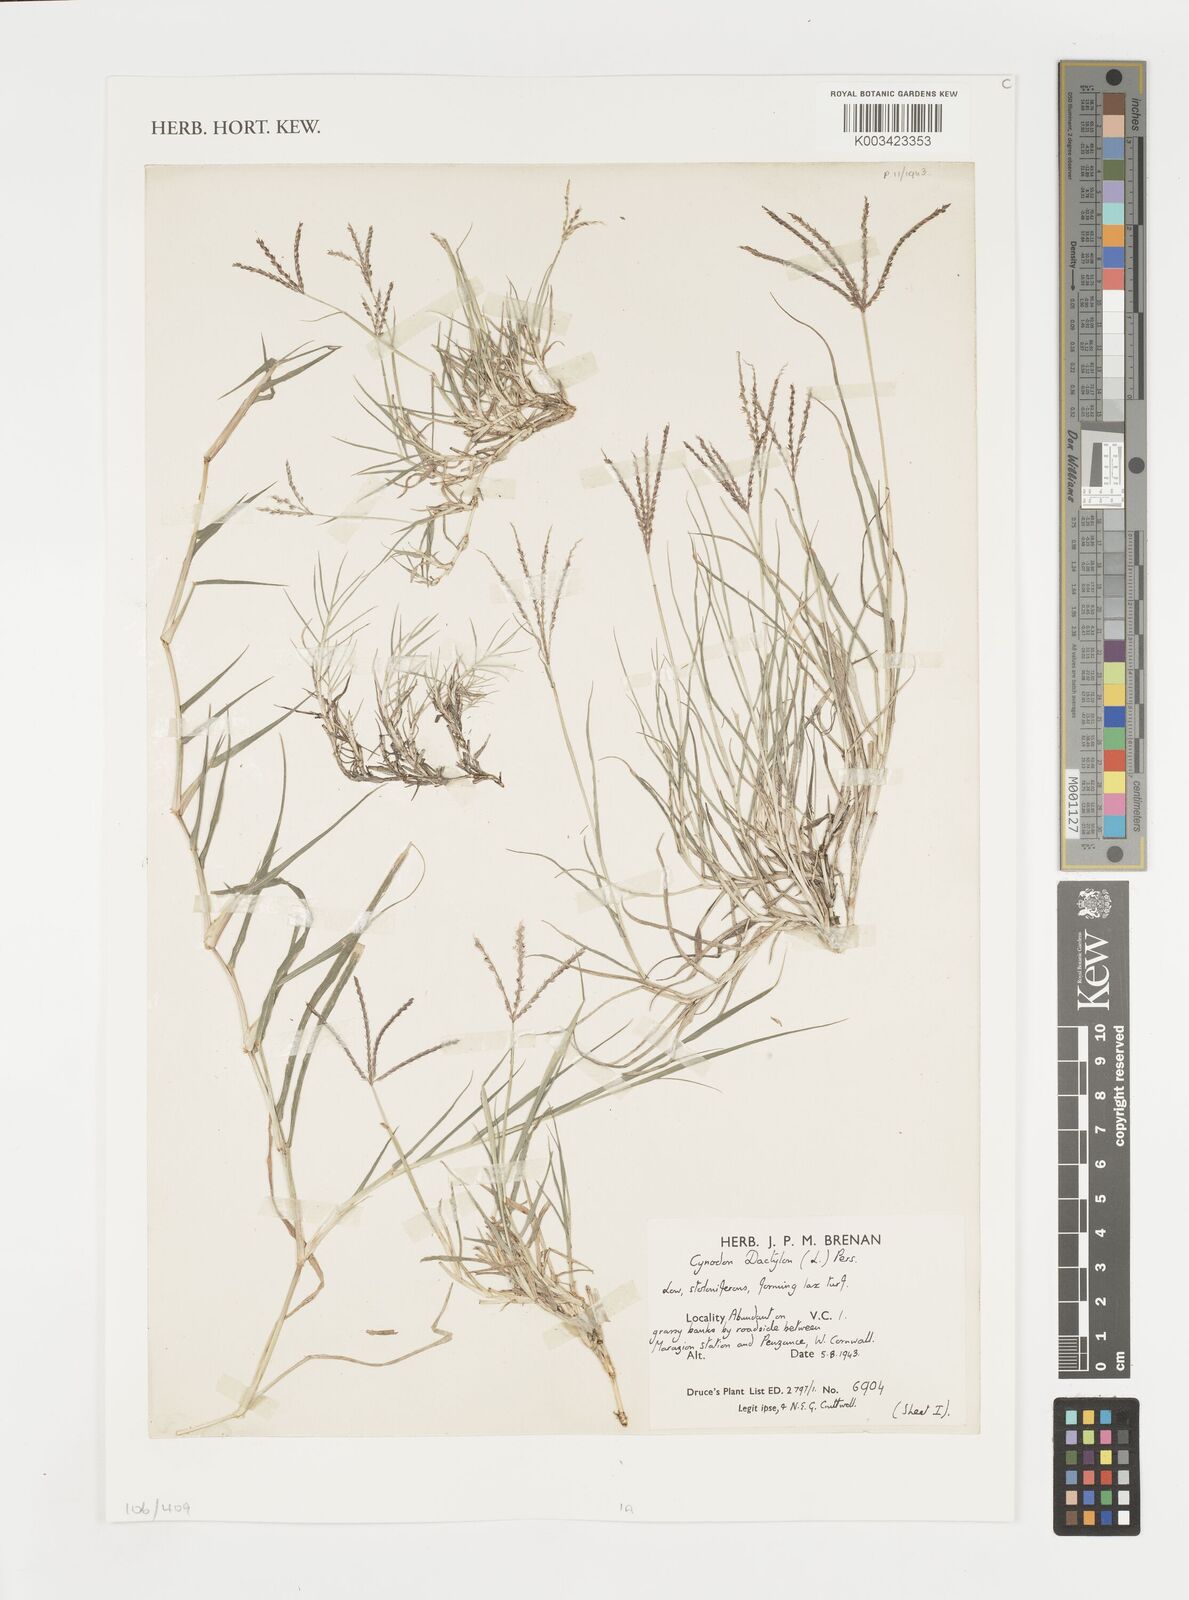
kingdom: Plantae
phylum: Tracheophyta
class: Liliopsida
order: Poales
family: Poaceae
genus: Cynodon
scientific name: Cynodon dactylon
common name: Bermuda grass
